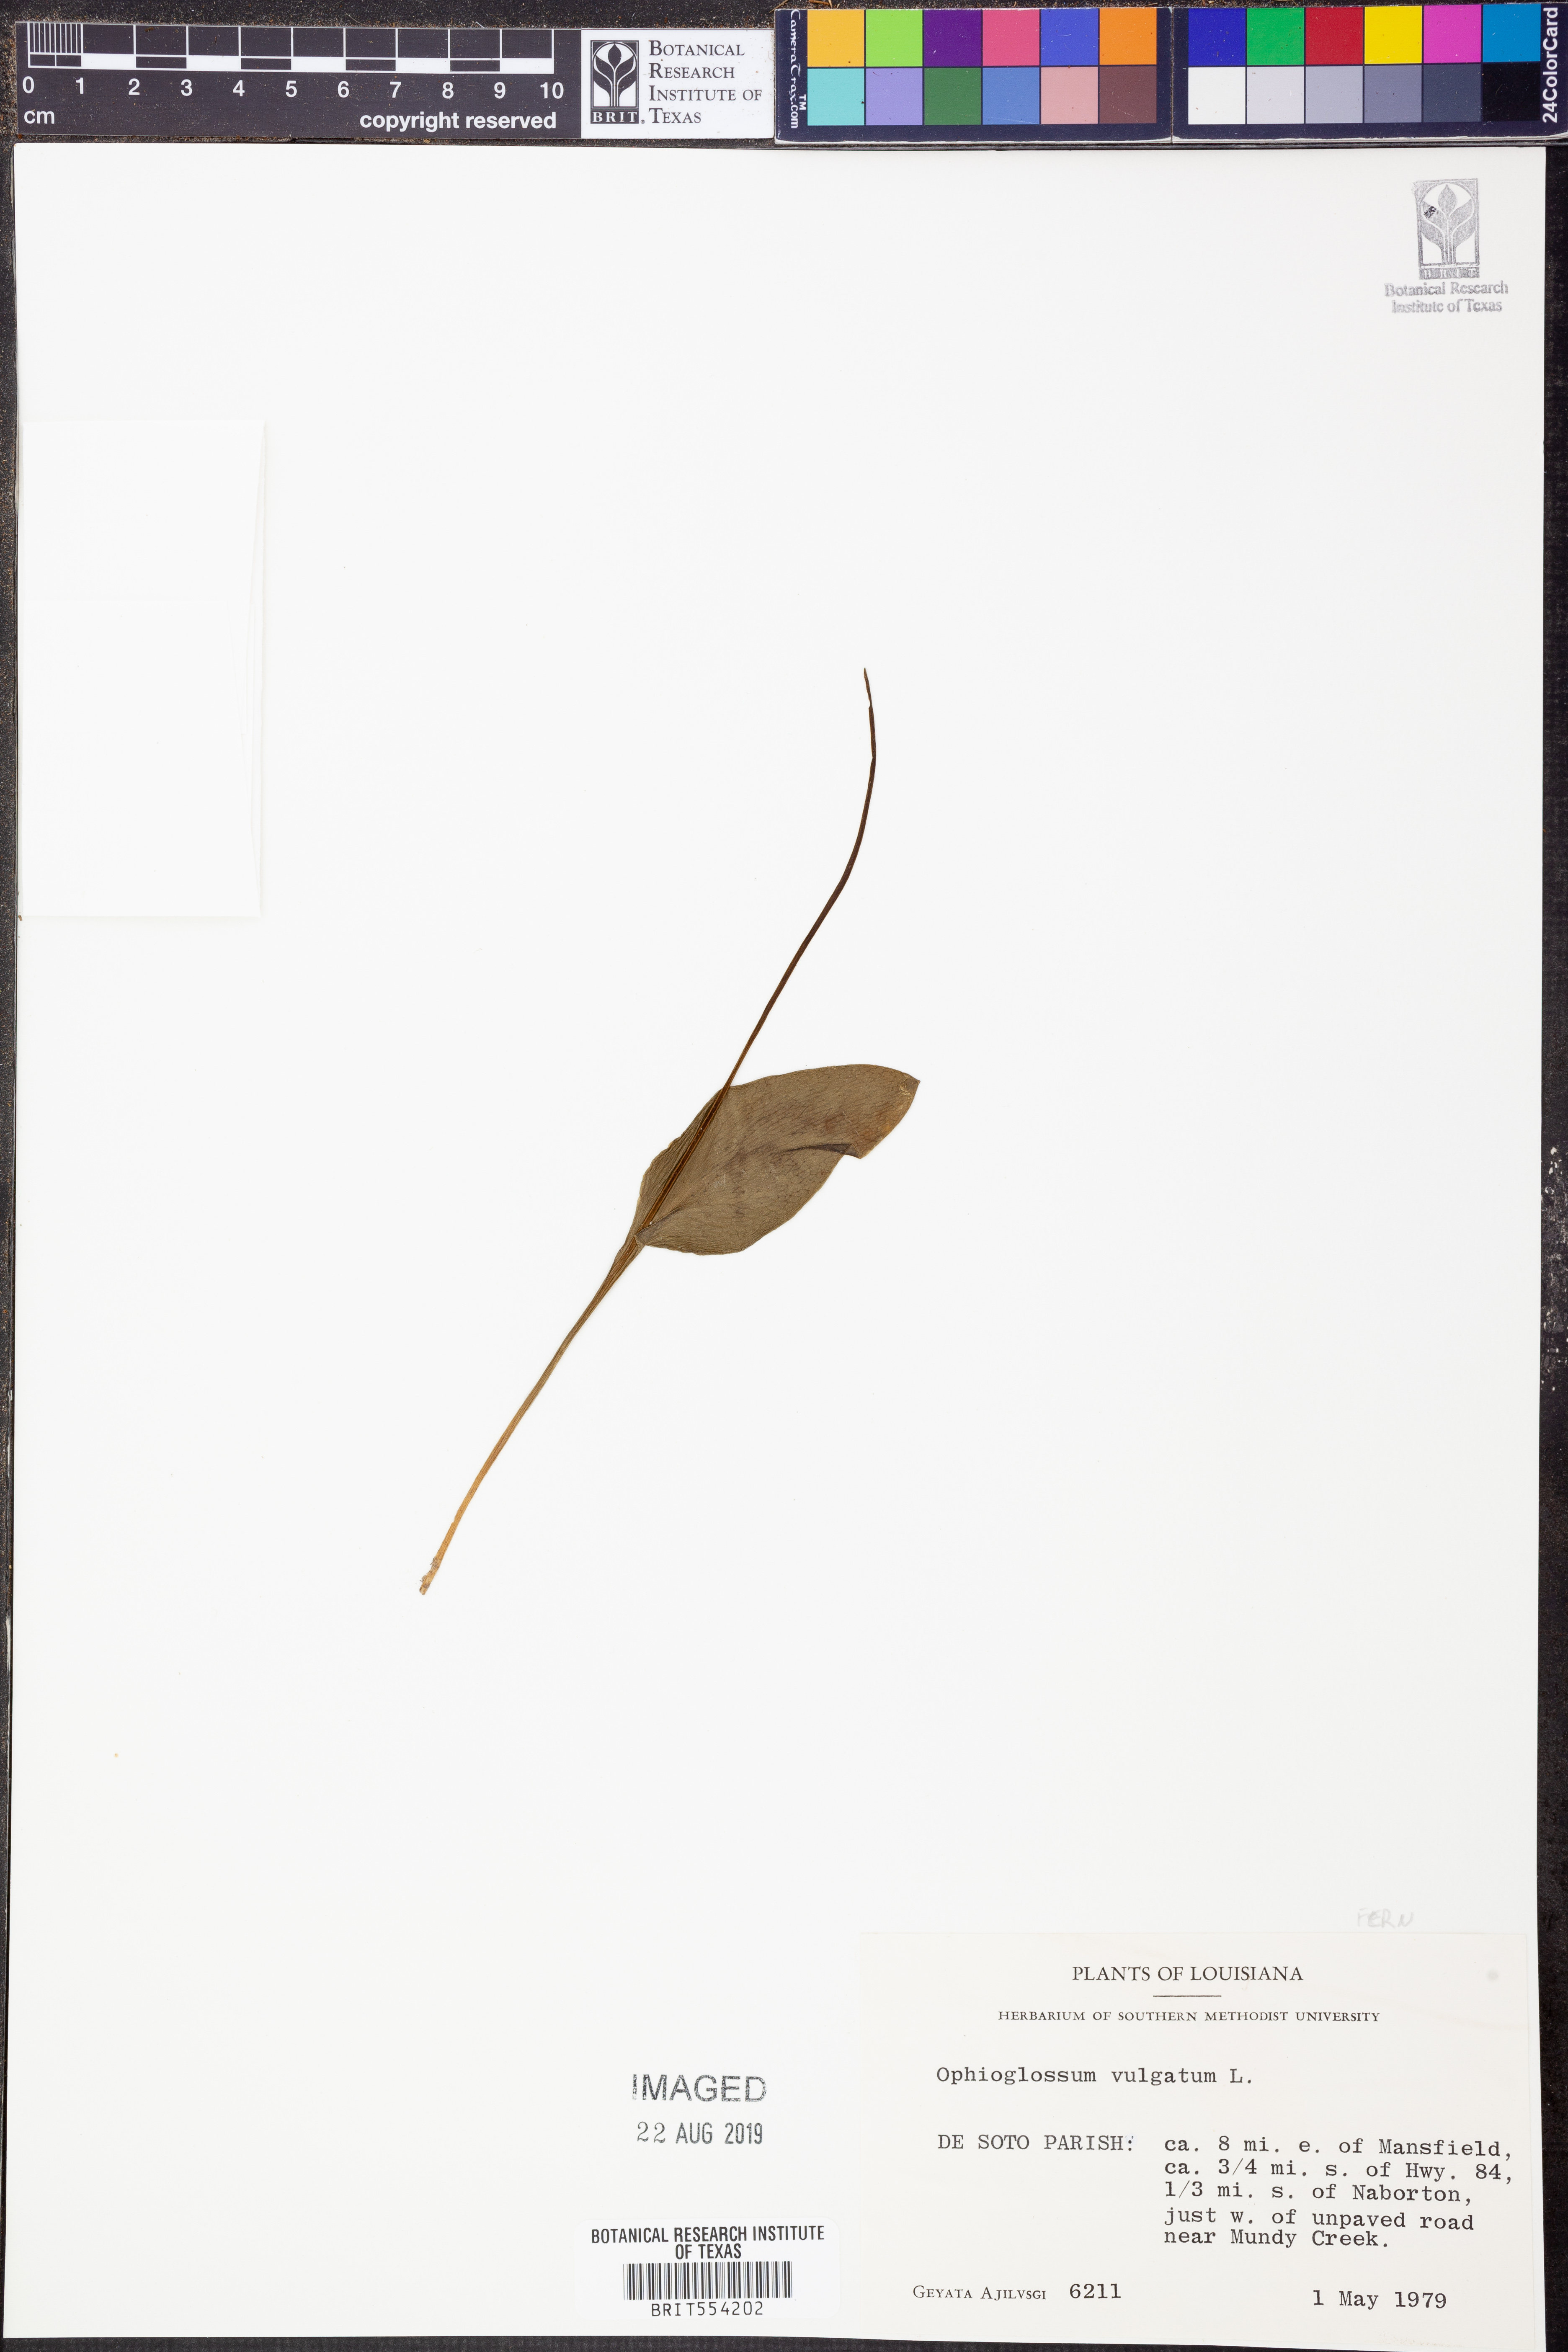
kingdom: Plantae
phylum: Tracheophyta
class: Polypodiopsida
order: Ophioglossales
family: Ophioglossaceae
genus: Ophioglossum
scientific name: Ophioglossum vulgatum
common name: Adder's-tongue
